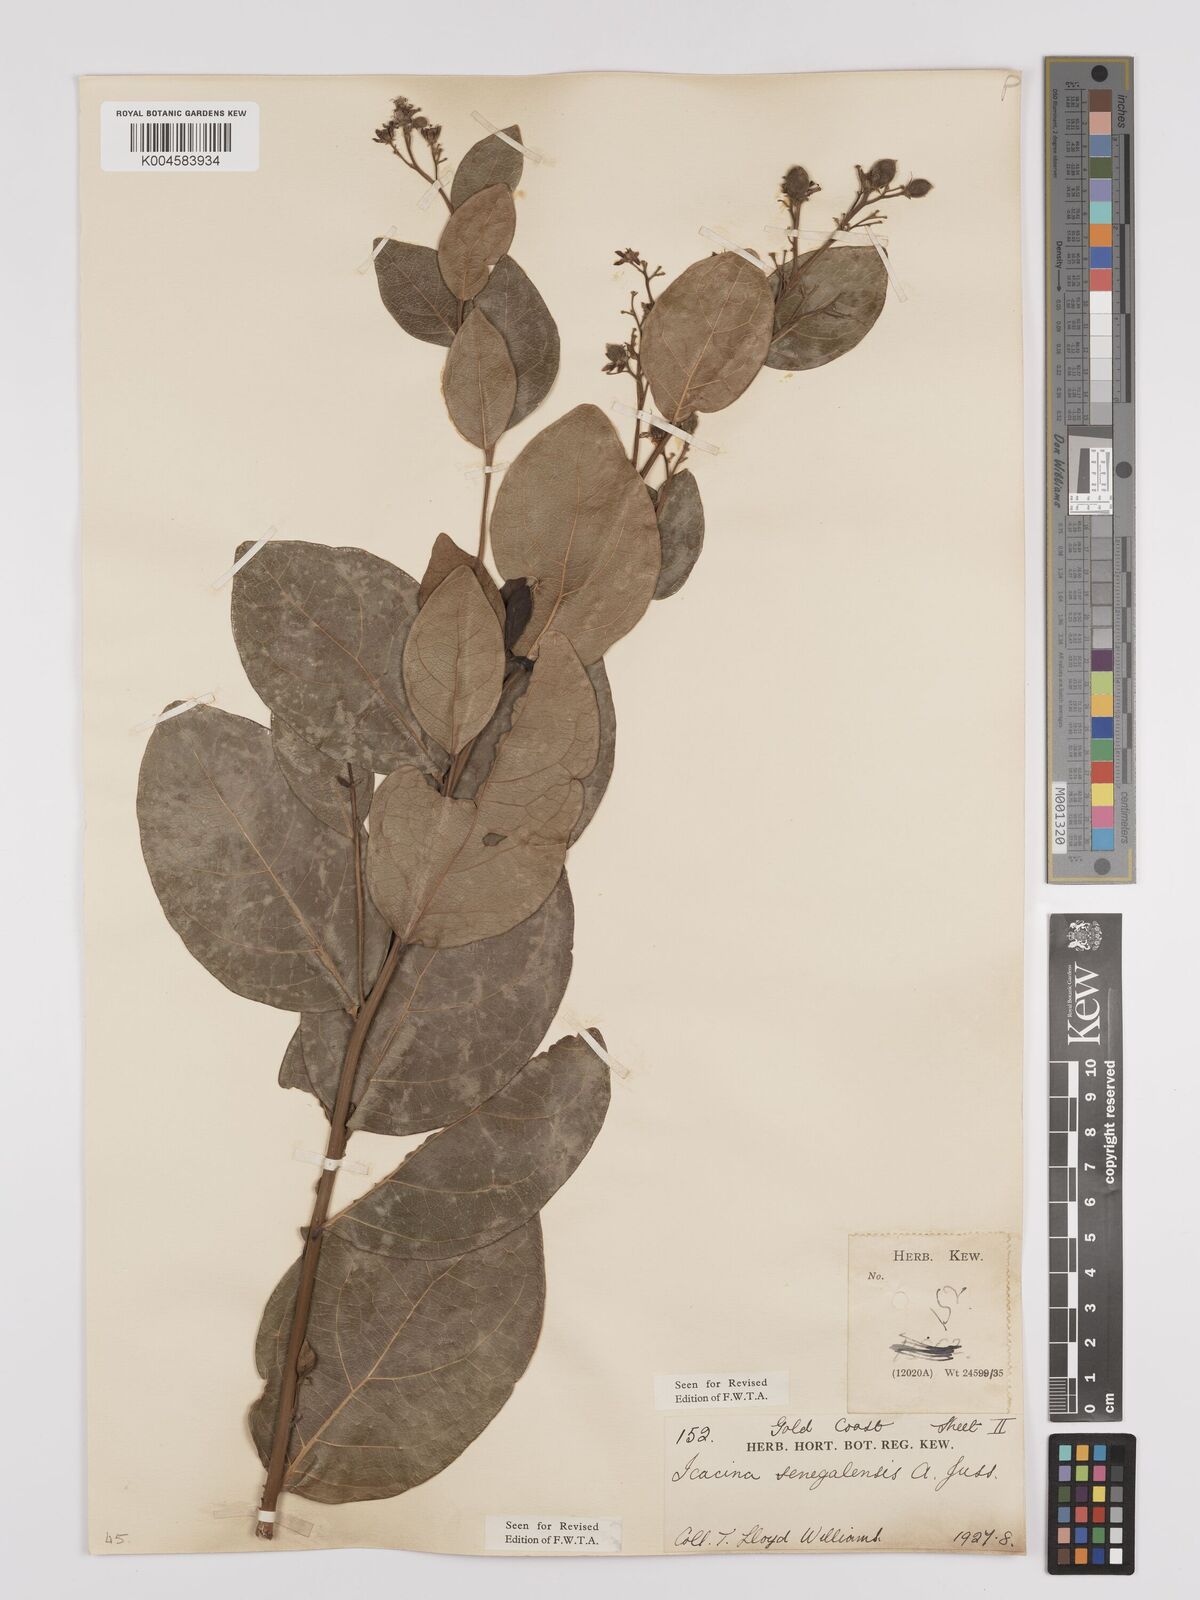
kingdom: Plantae
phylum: Tracheophyta
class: Magnoliopsida
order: Icacinales
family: Icacinaceae
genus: Icacina
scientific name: Icacina oliviformis
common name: False yam
